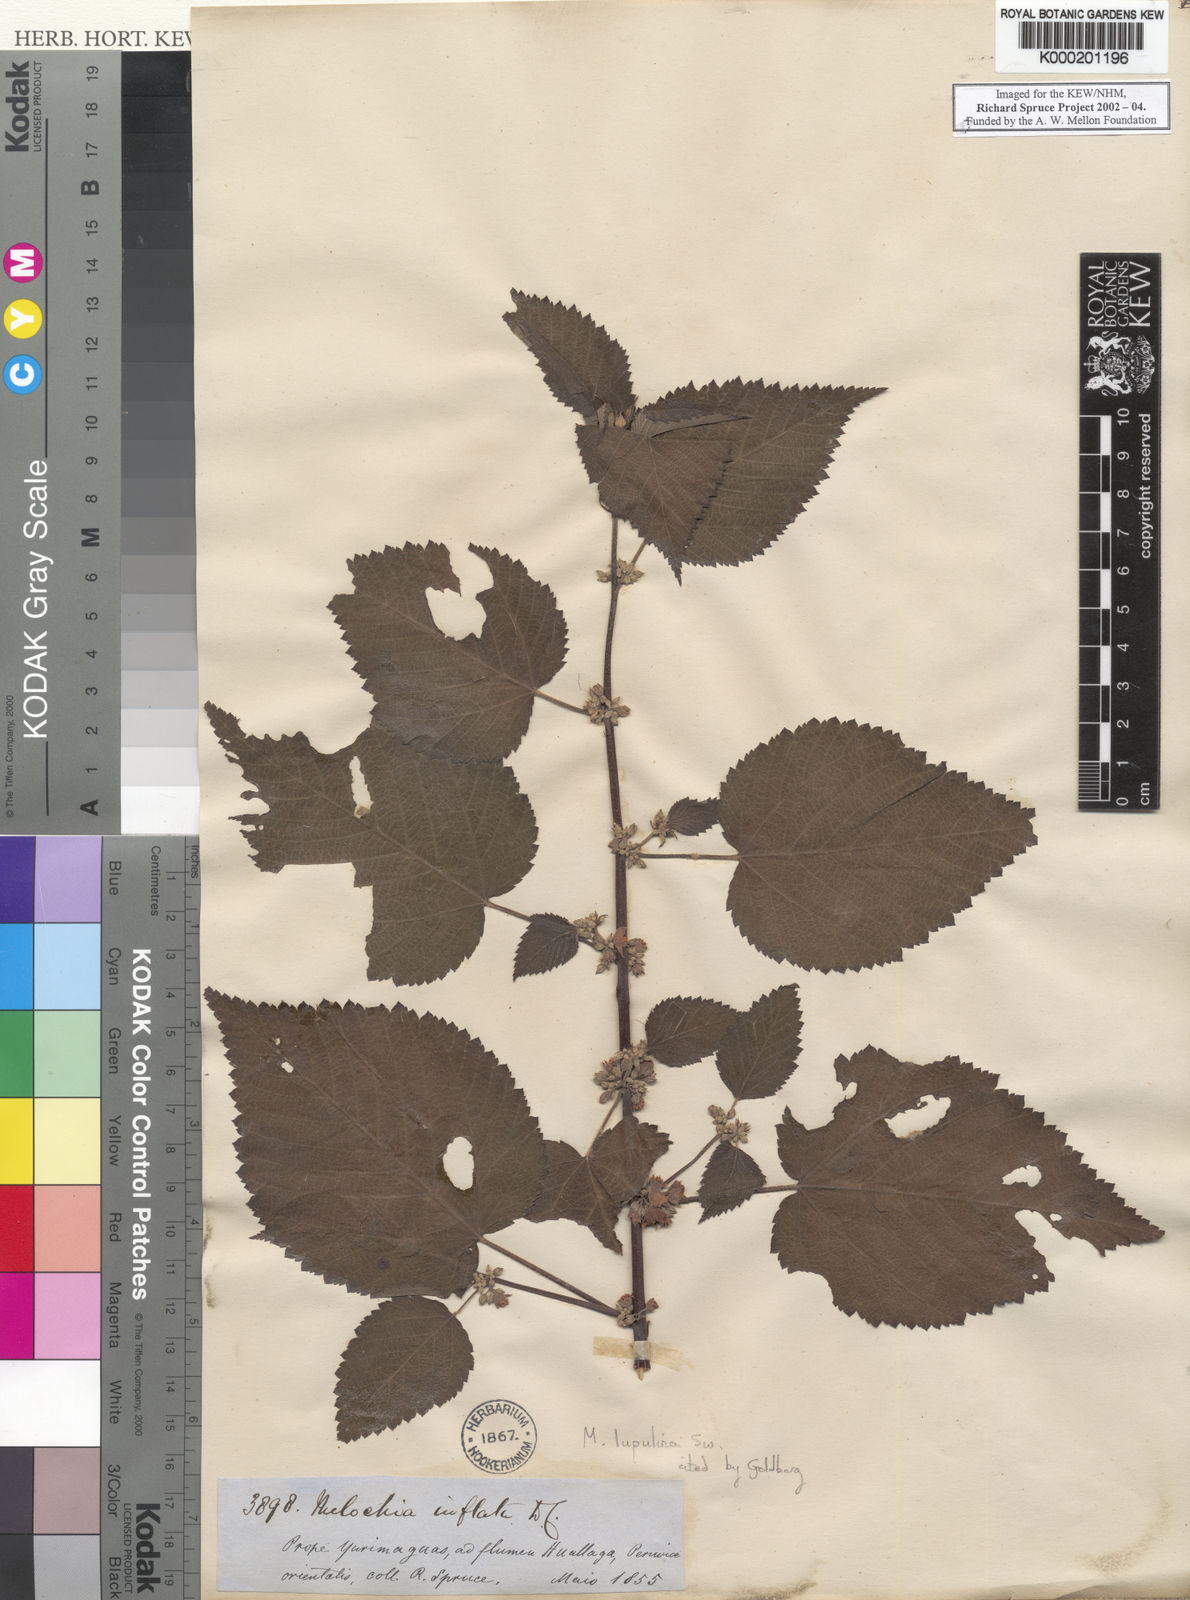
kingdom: Plantae
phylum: Tracheophyta
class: Magnoliopsida
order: Malvales
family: Malvaceae
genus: Melochia
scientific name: Melochia lupulina
